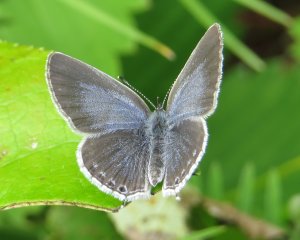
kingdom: Animalia
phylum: Arthropoda
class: Insecta
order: Lepidoptera
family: Lycaenidae
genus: Elkalyce
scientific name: Elkalyce amyntula
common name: Western Tailed-Blue
